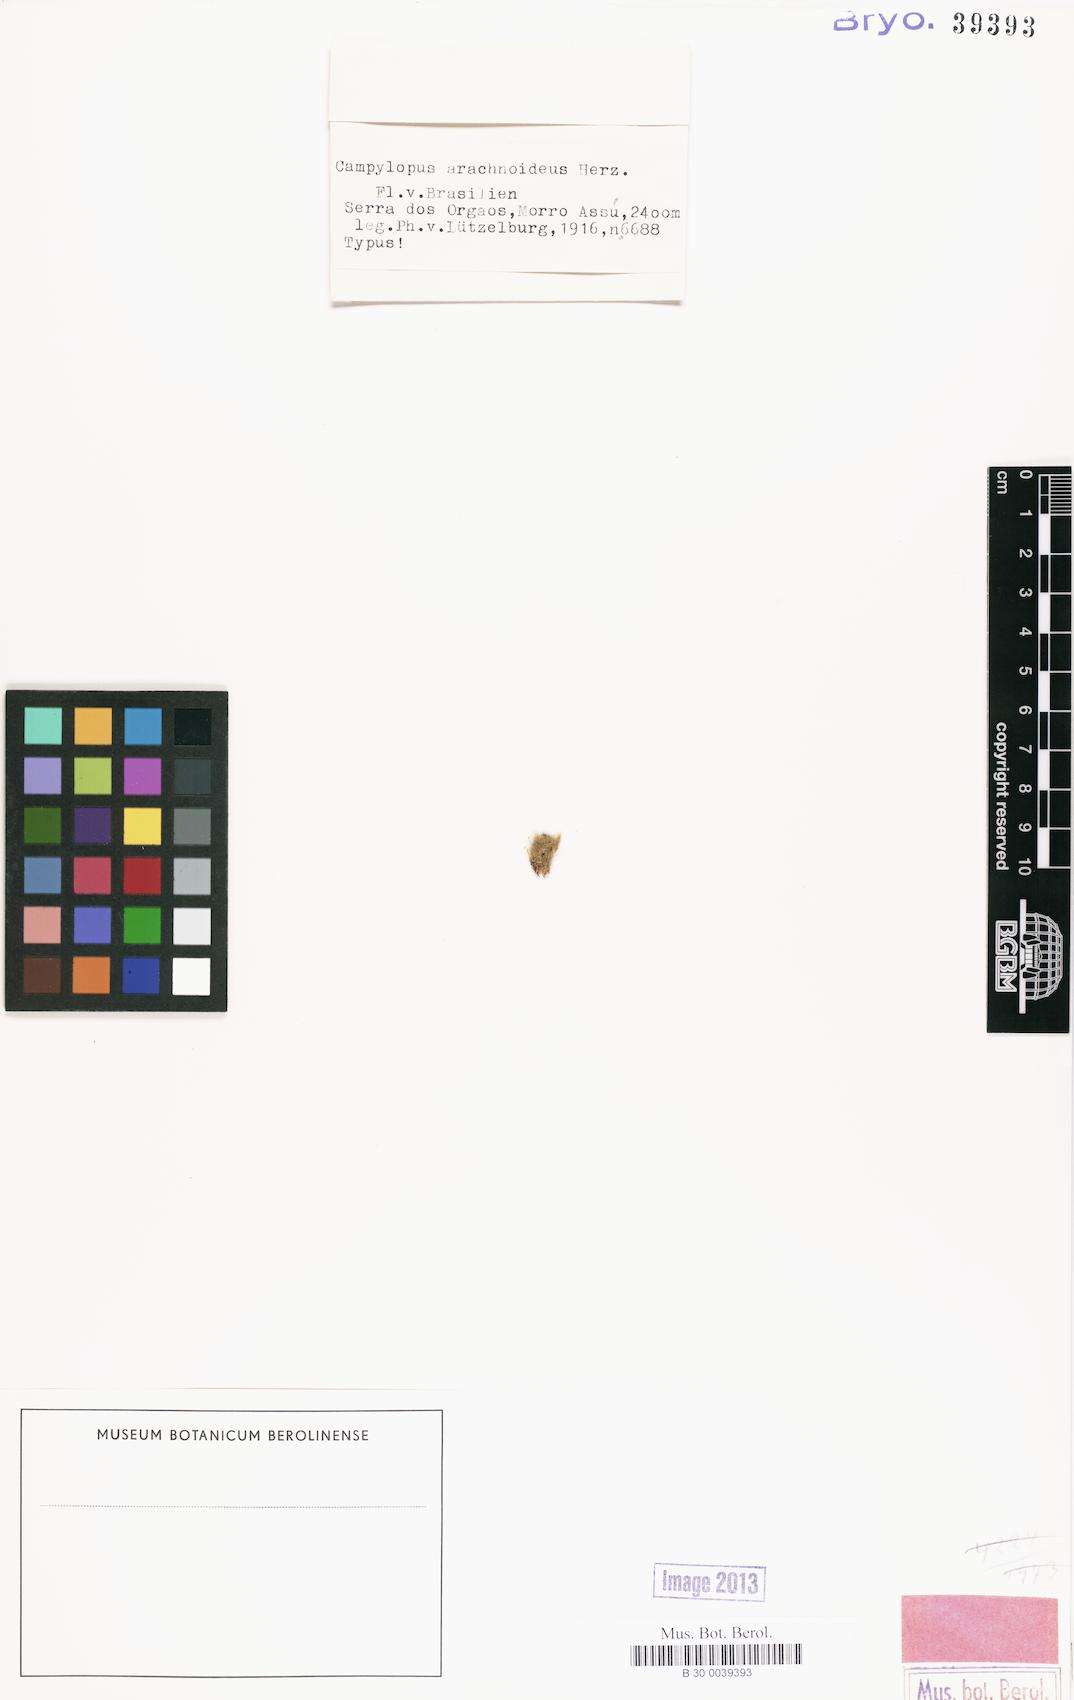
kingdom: Plantae
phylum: Bryophyta
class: Bryopsida
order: Dicranales
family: Leucobryaceae
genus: Campylopus
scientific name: Campylopus gemmatus
